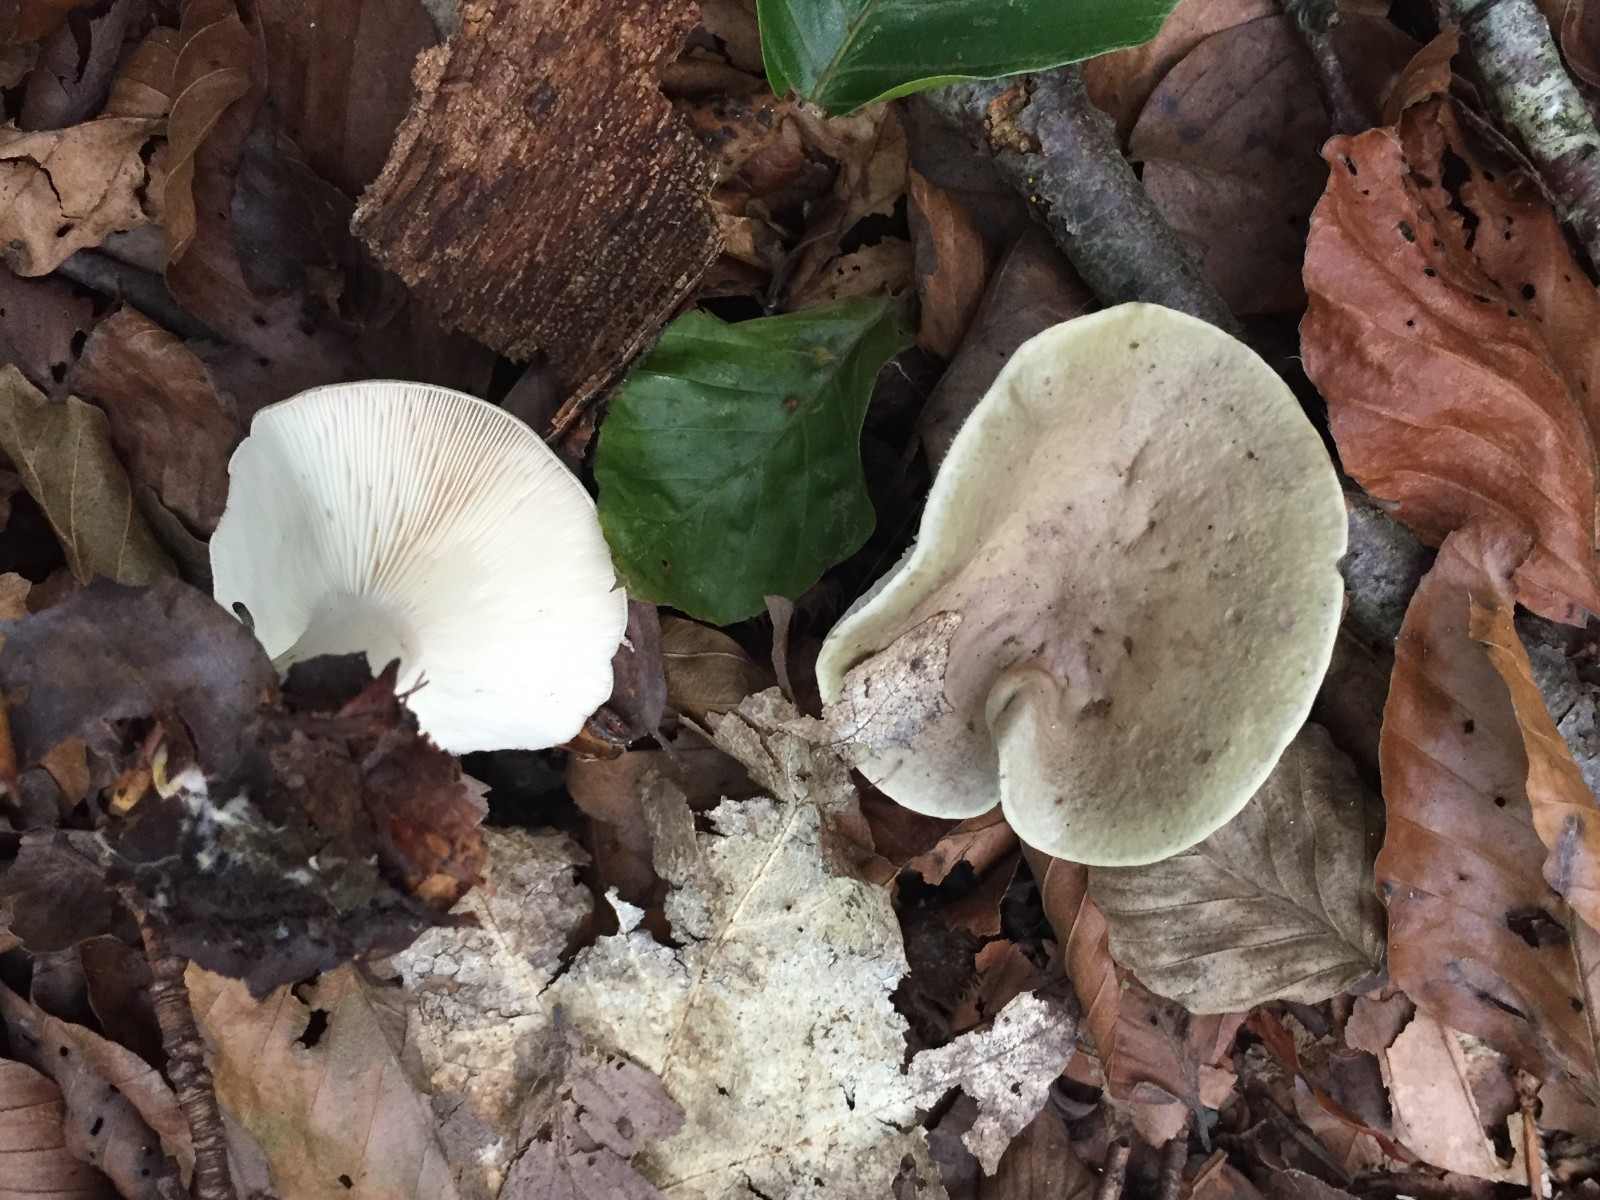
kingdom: Fungi
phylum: Basidiomycota
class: Agaricomycetes
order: Russulales
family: Russulaceae
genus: Lactarius
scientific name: Lactarius fluens
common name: lysrandet mælkehat
